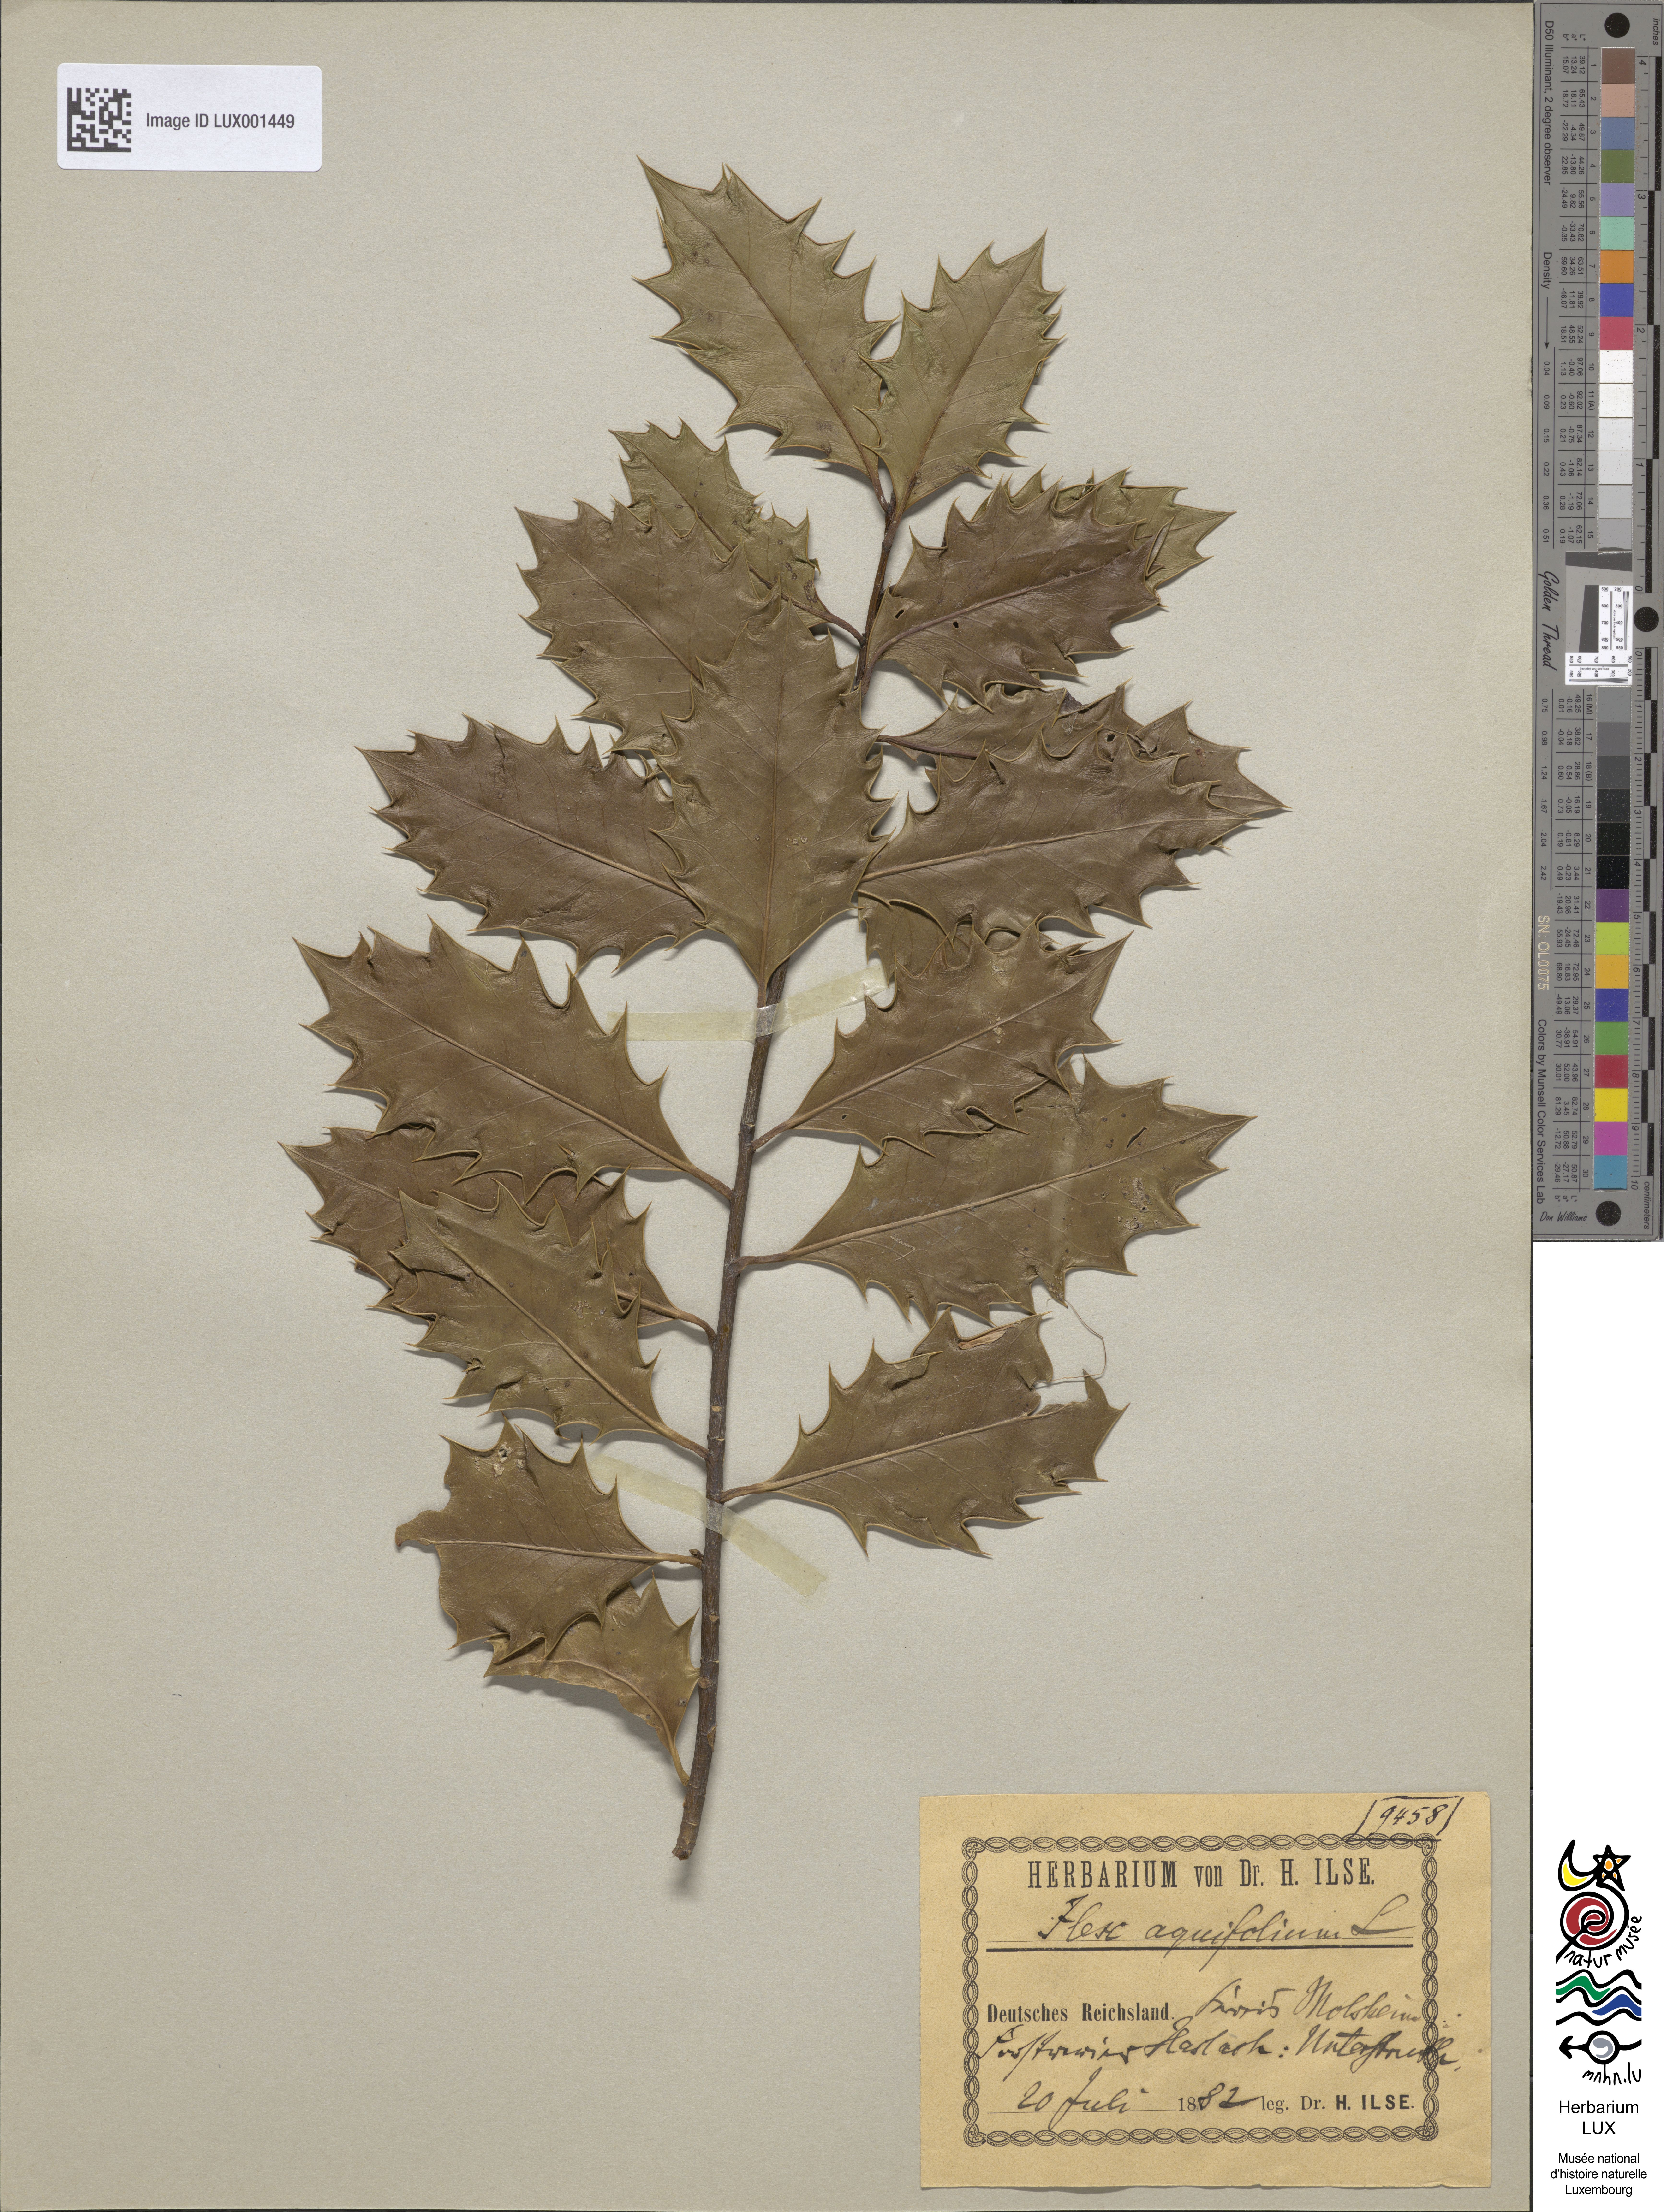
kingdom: Plantae
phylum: Tracheophyta
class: Magnoliopsida
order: Aquifoliales
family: Aquifoliaceae
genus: Ilex
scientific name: Ilex aquifolium
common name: English holly
